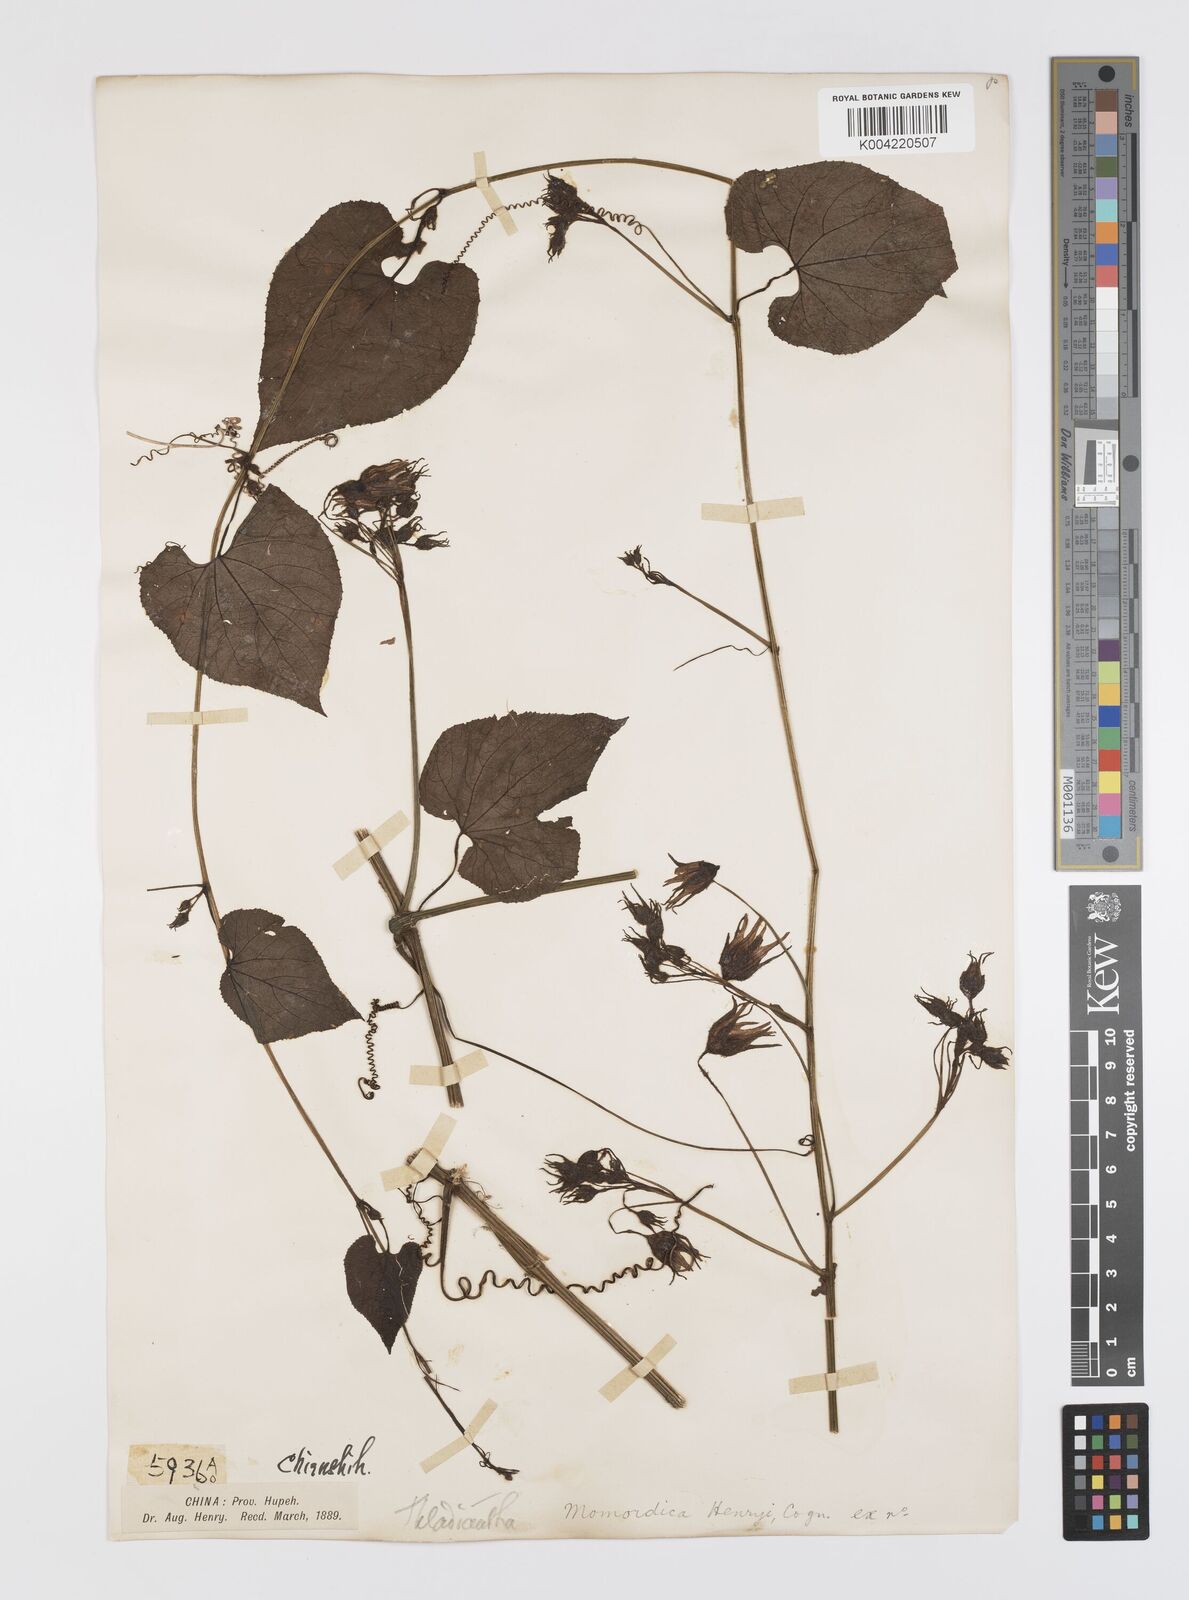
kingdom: Plantae
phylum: Tracheophyta
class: Magnoliopsida
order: Cucurbitales
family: Cucurbitaceae
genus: Thladiantha
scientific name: Thladiantha henryi
